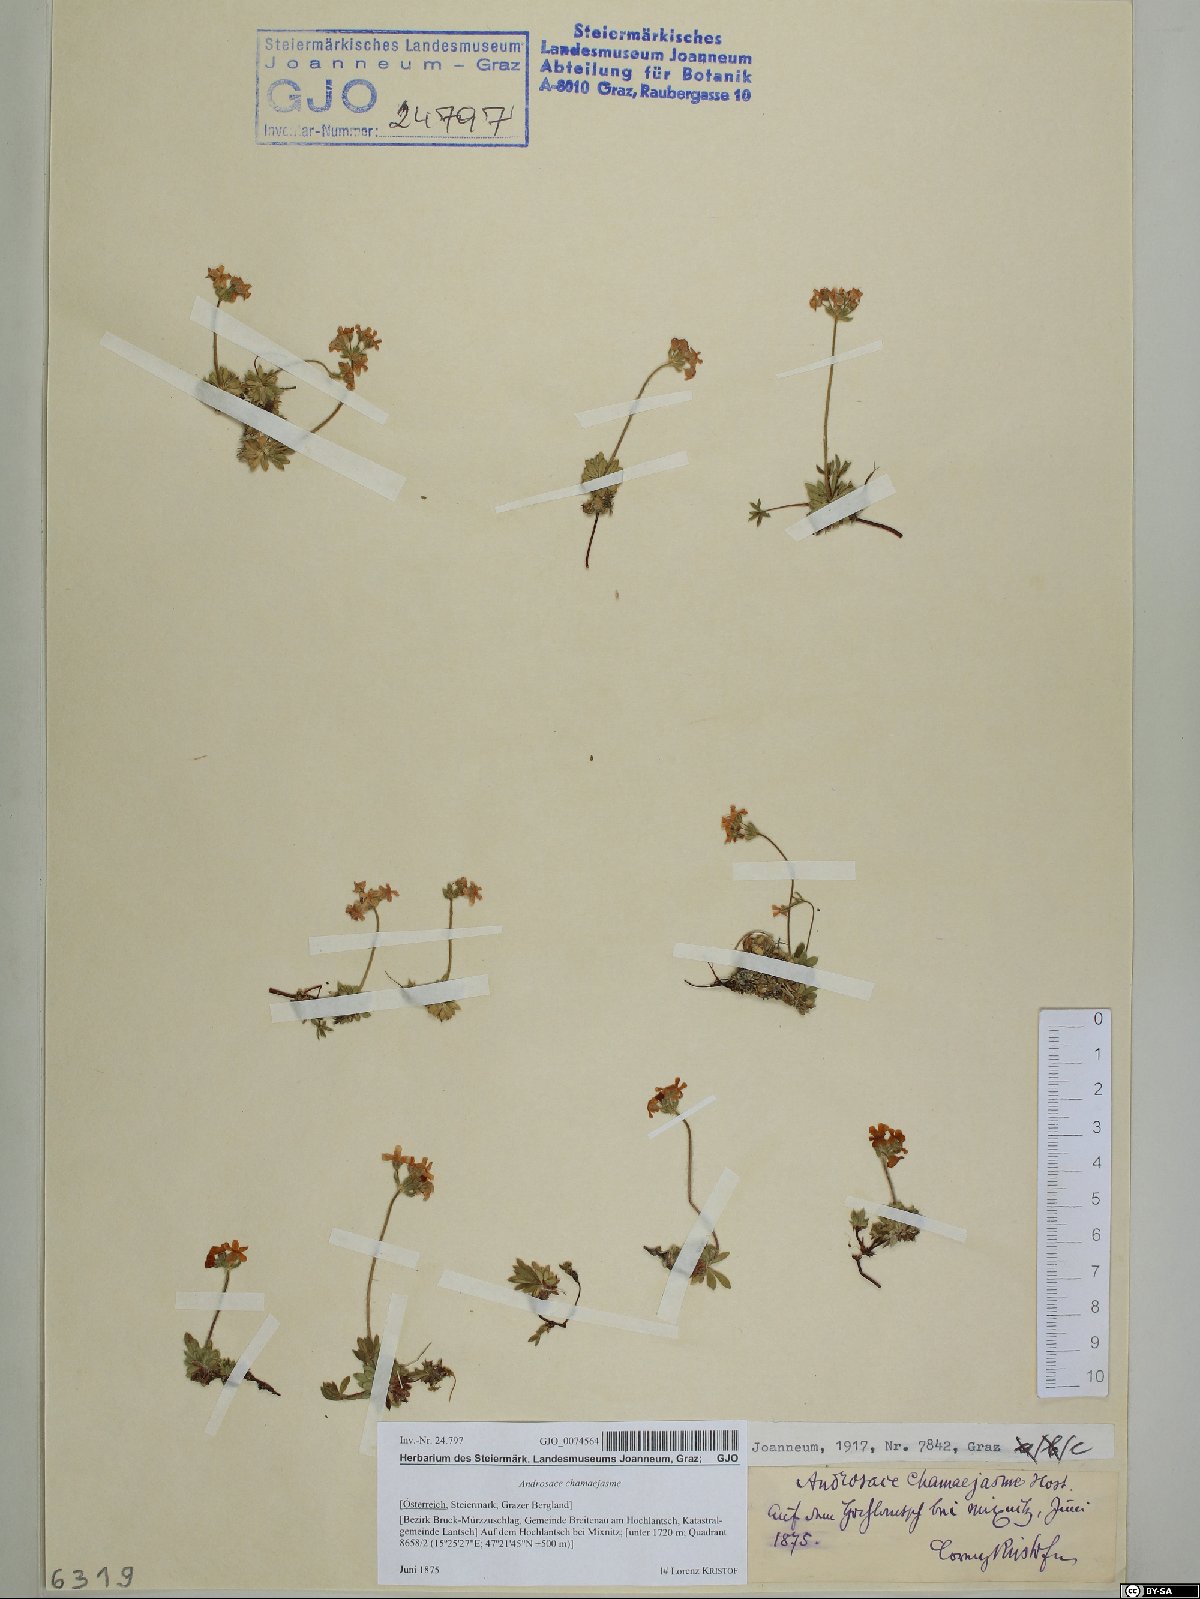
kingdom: Plantae
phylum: Tracheophyta
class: Magnoliopsida
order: Ericales
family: Primulaceae
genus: Androsace
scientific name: Androsace chamaejasme
